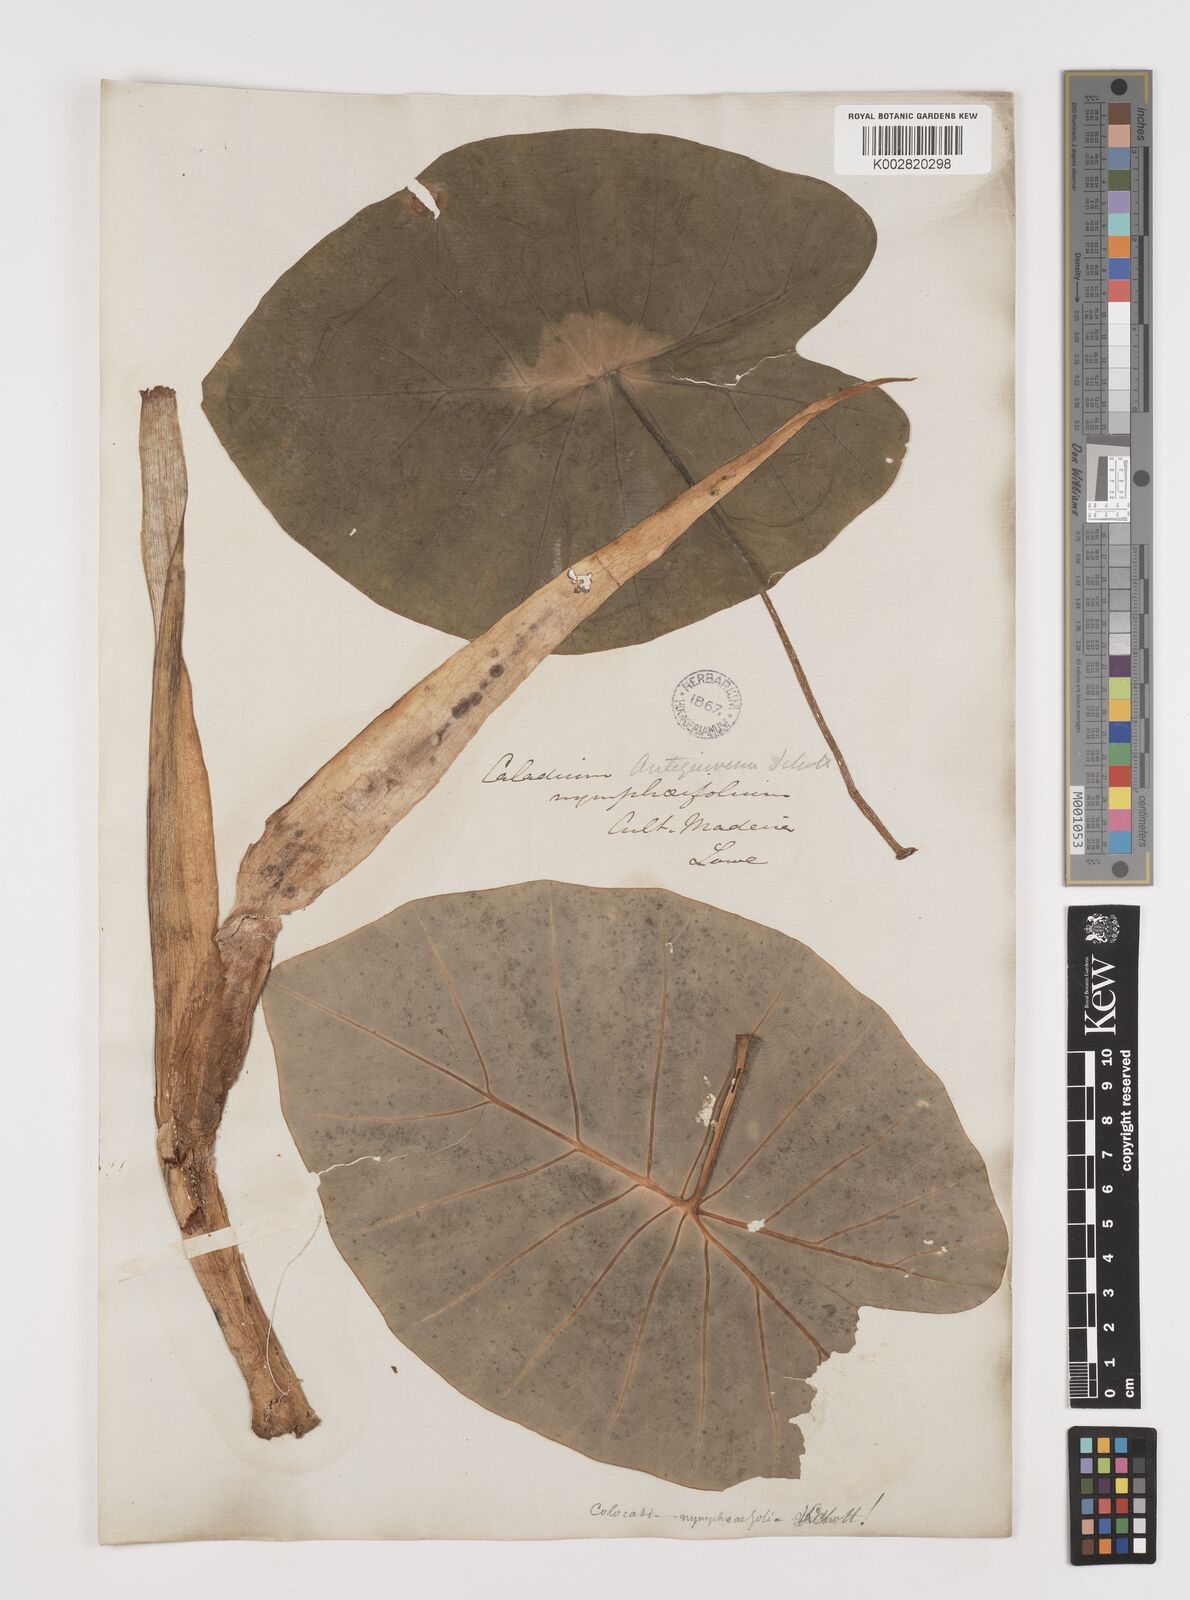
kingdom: Plantae
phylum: Tracheophyta
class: Liliopsida
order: Alismatales
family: Araceae
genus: Colocasia
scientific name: Colocasia esculenta
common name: Taro
